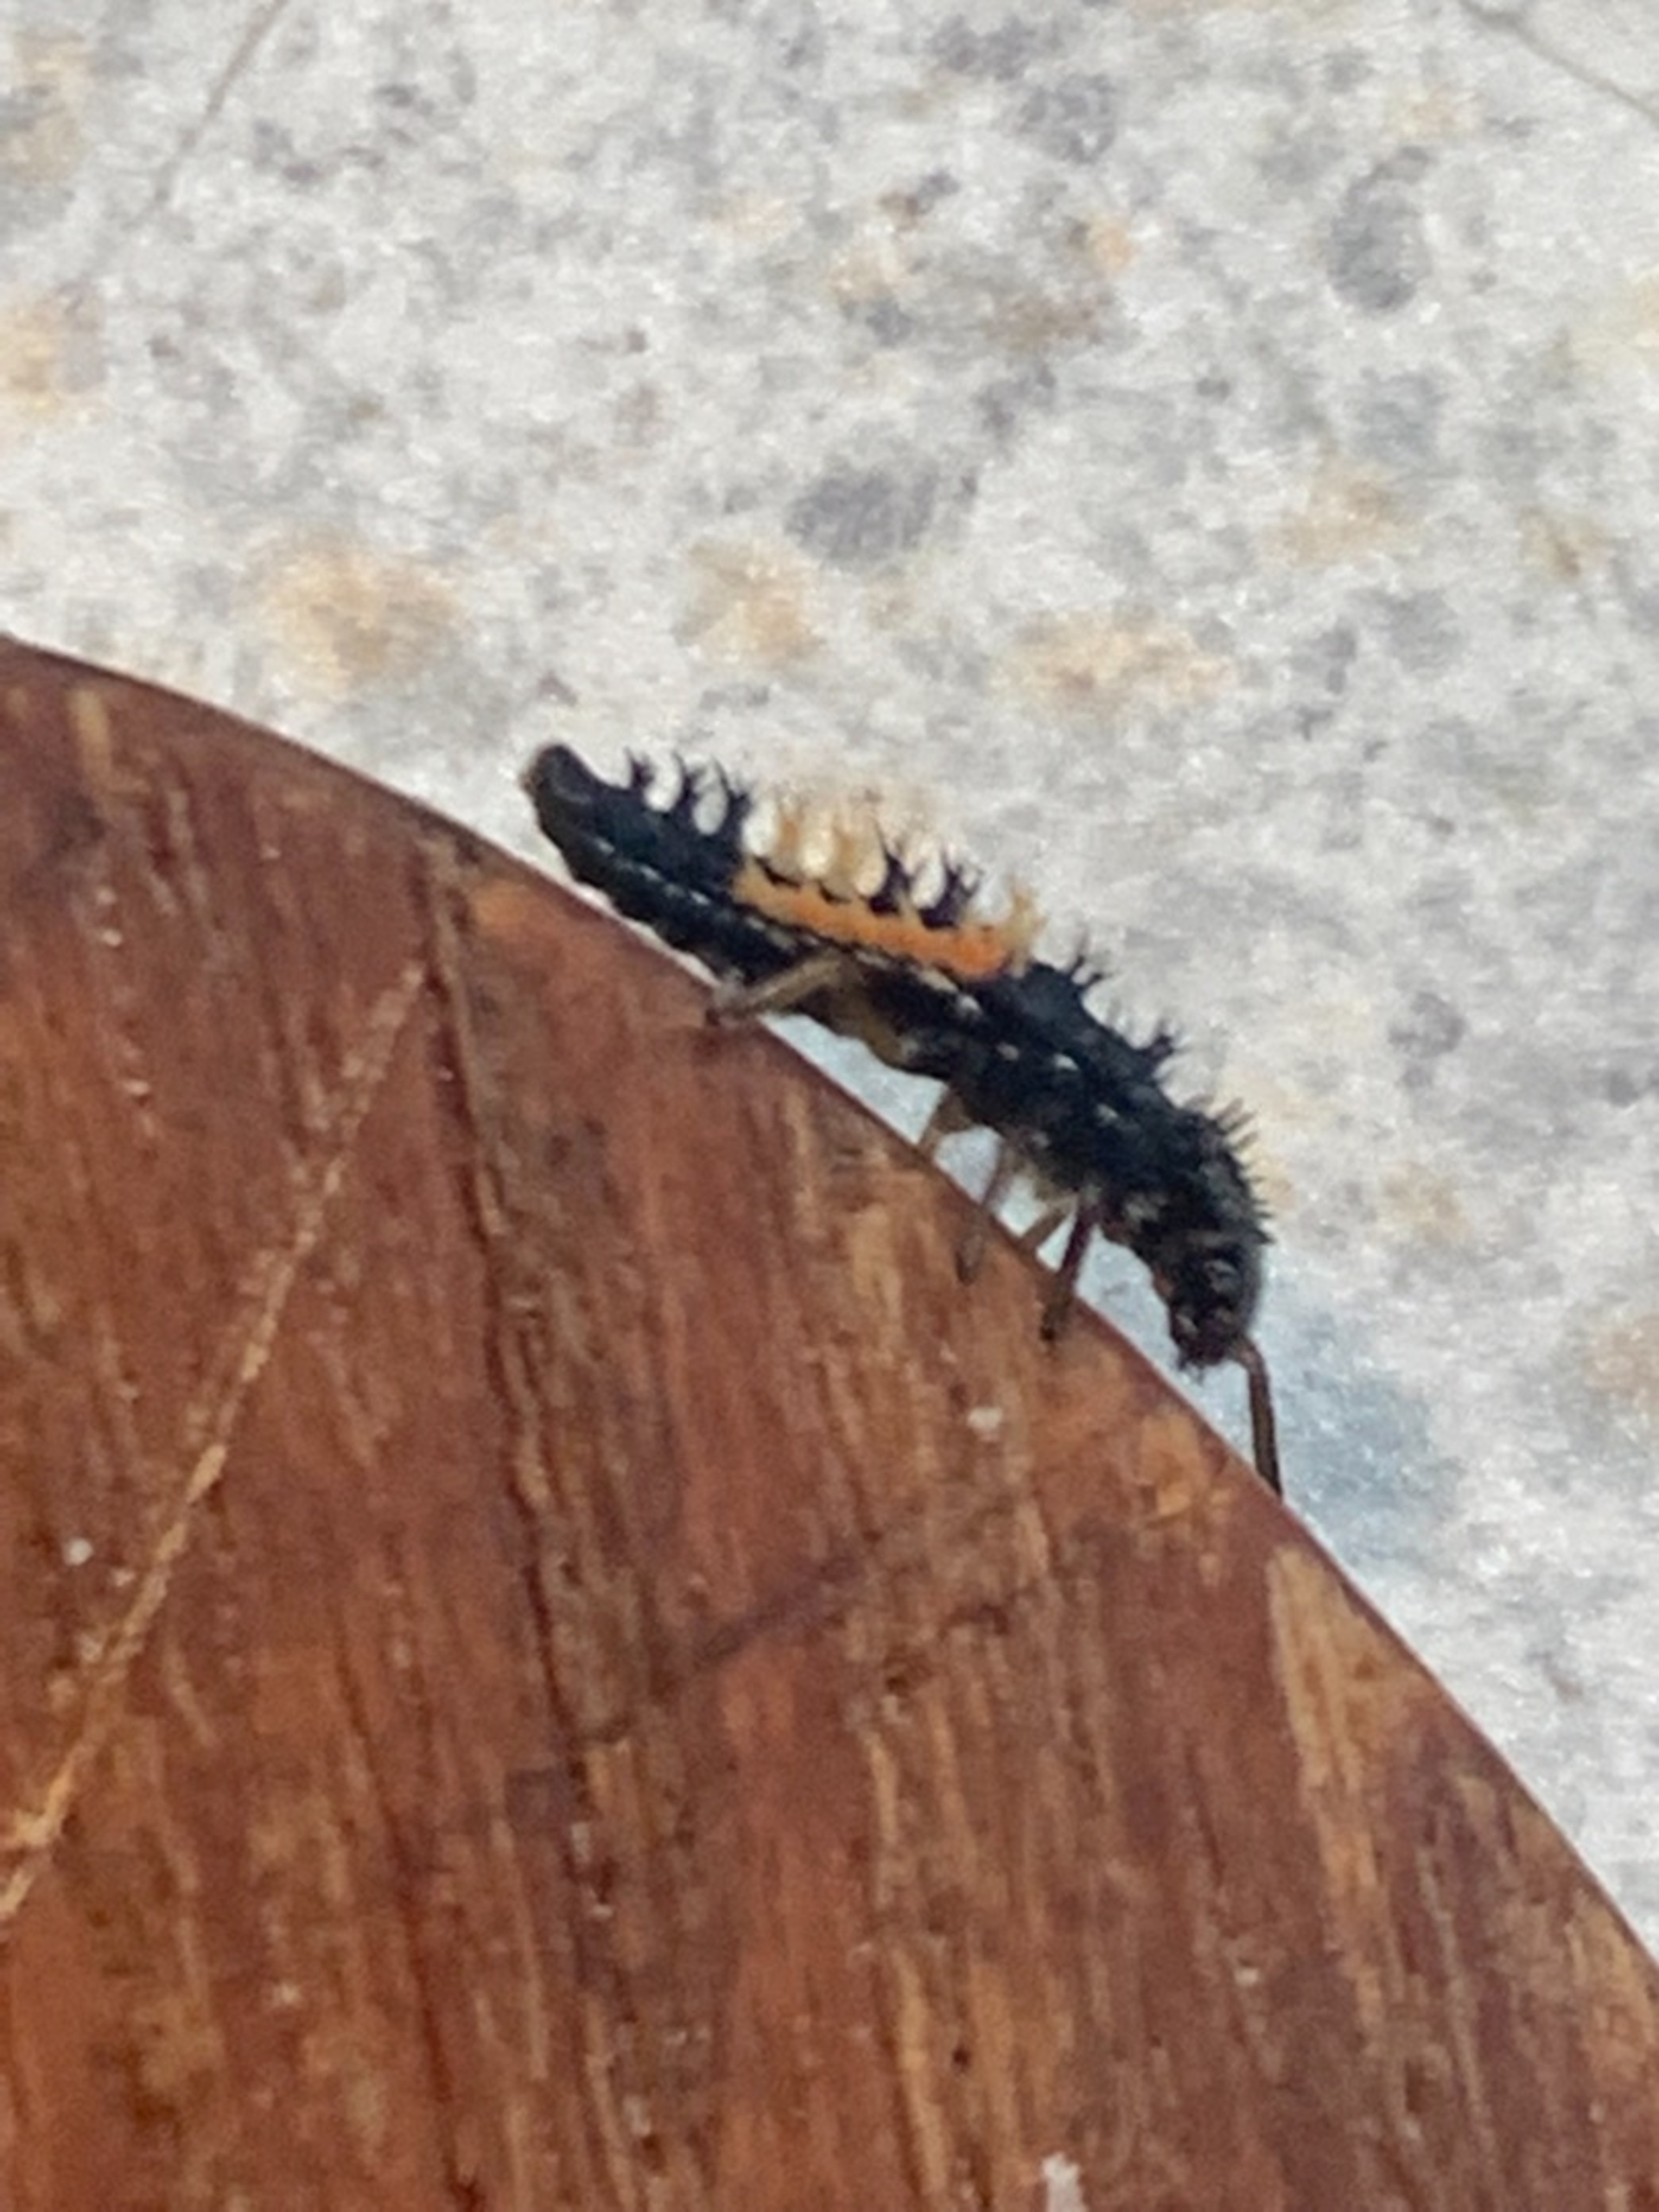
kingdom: Animalia
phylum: Arthropoda
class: Insecta
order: Coleoptera
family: Coccinellidae
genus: Harmonia
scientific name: Harmonia axyridis
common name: Harlekinmariehøne
